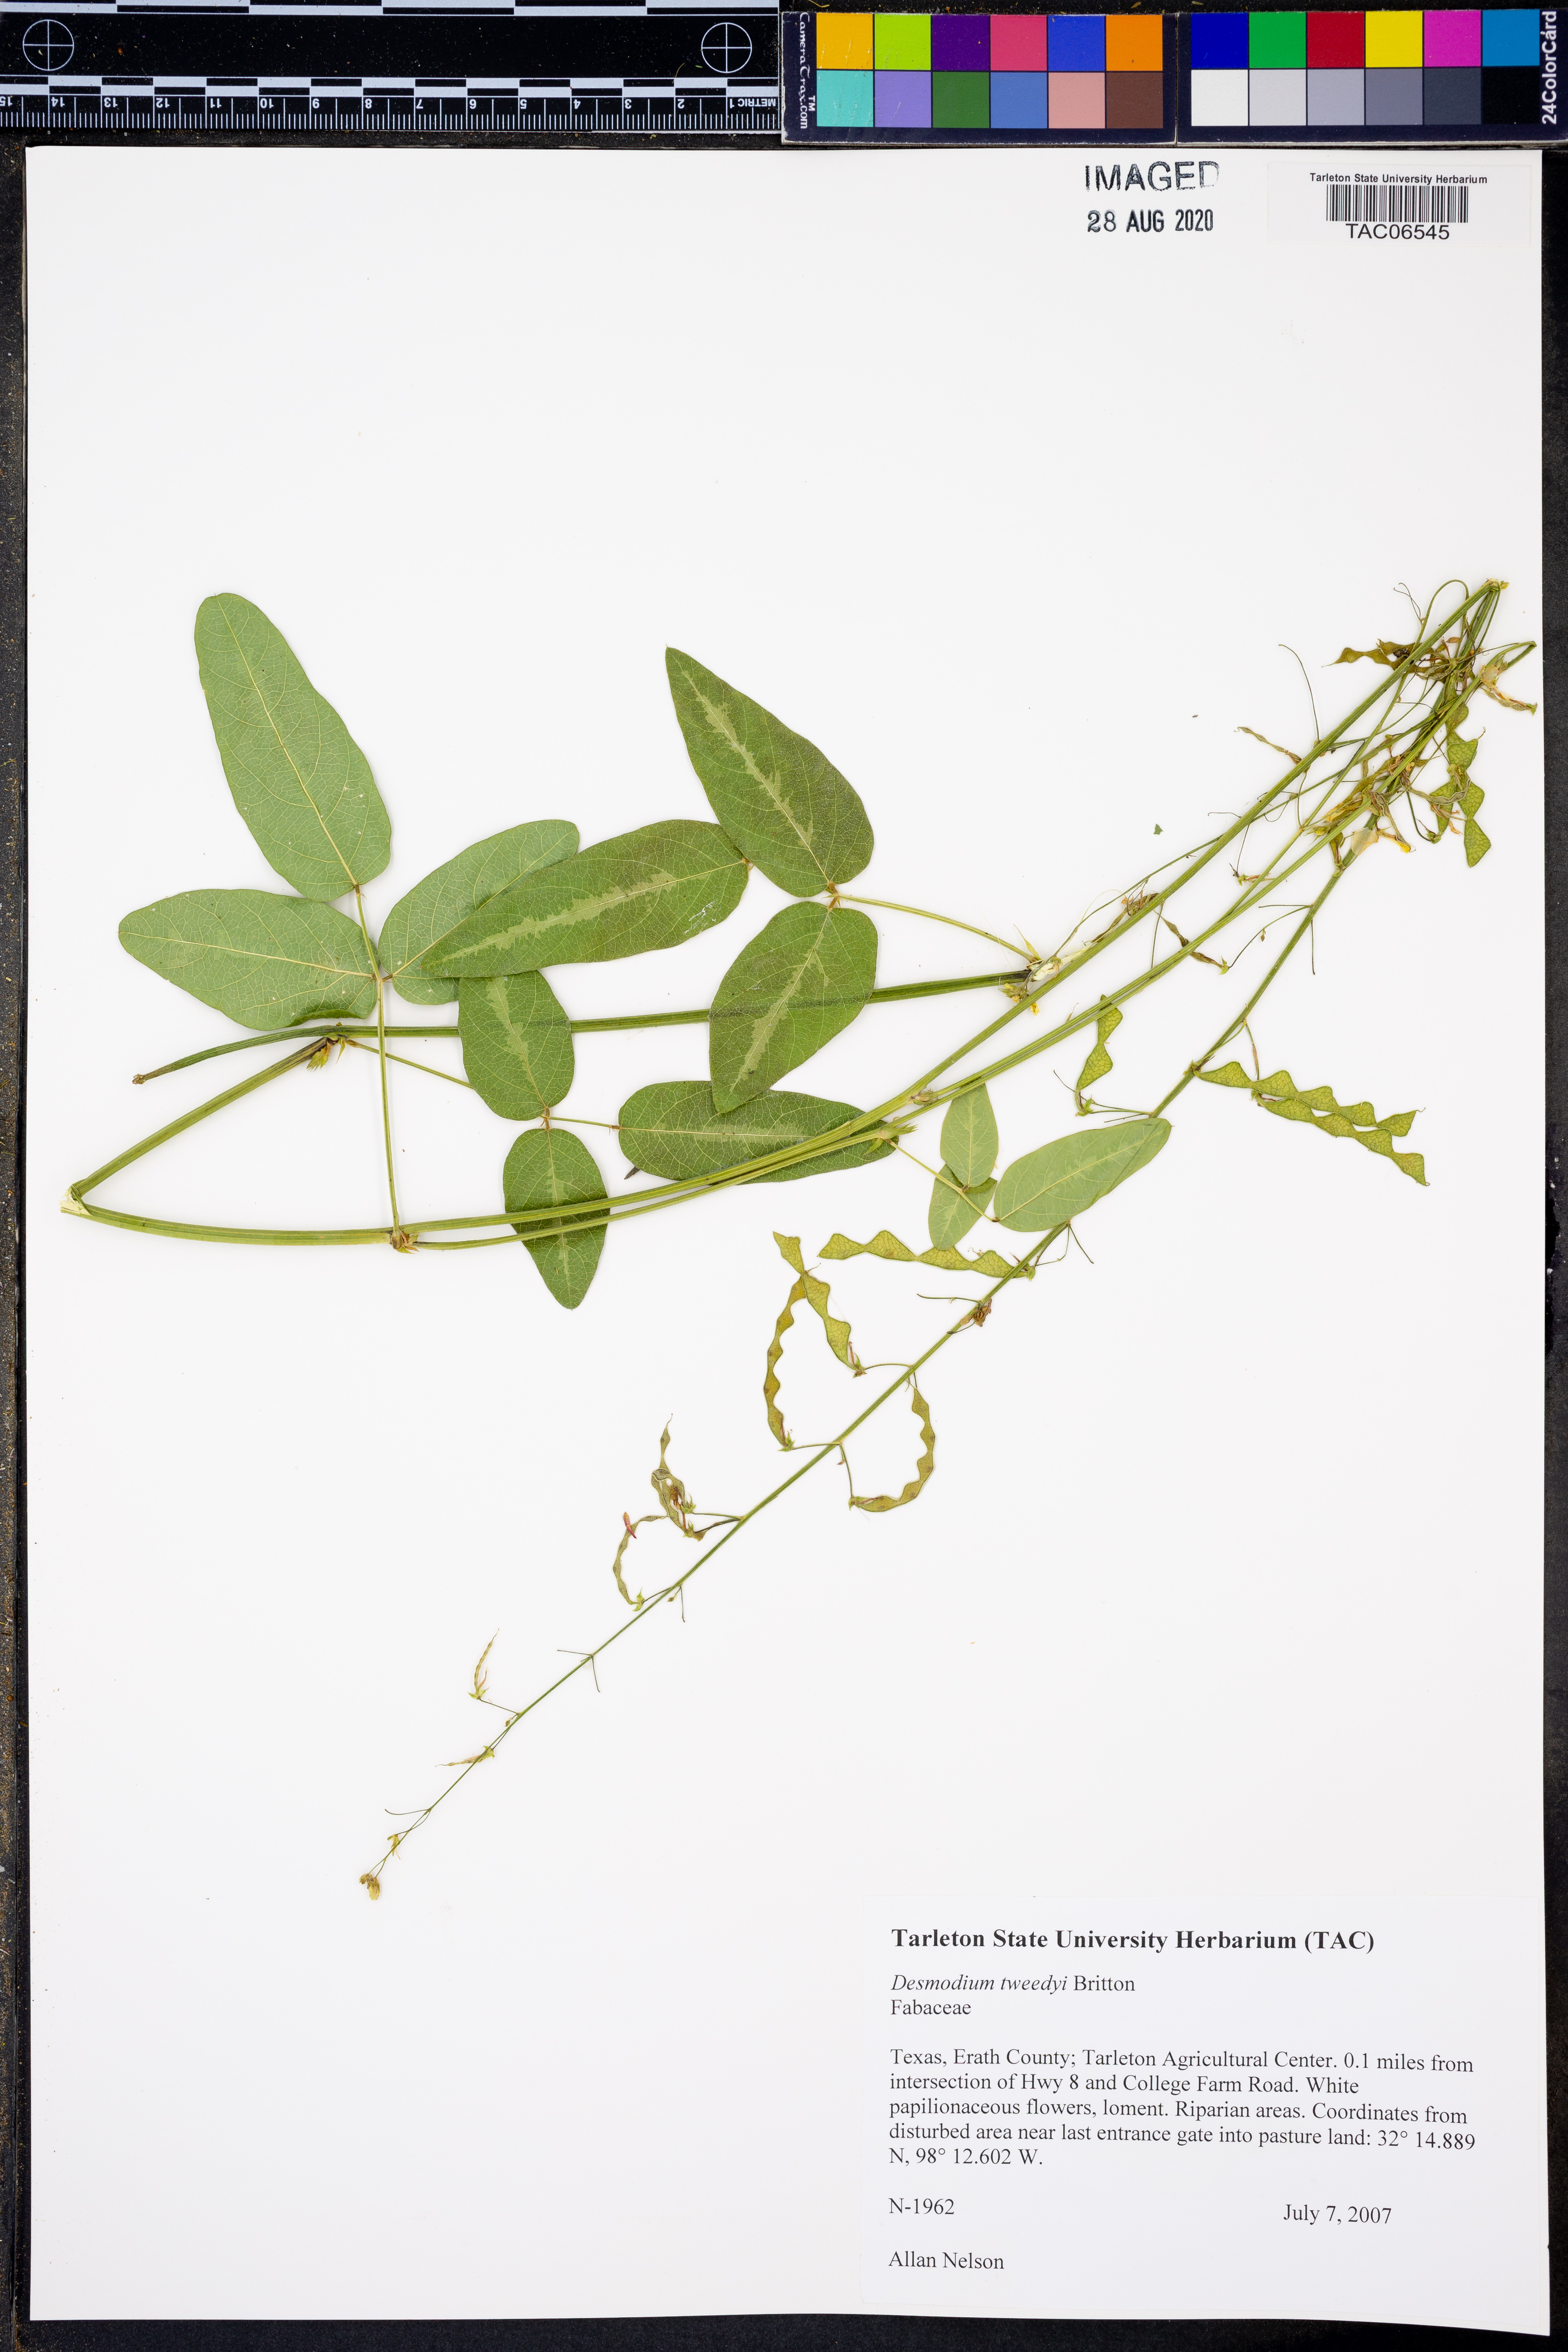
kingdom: Plantae
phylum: Tracheophyta
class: Magnoliopsida
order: Fabales
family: Fabaceae
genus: Desmodium
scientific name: Desmodium tweedyi
